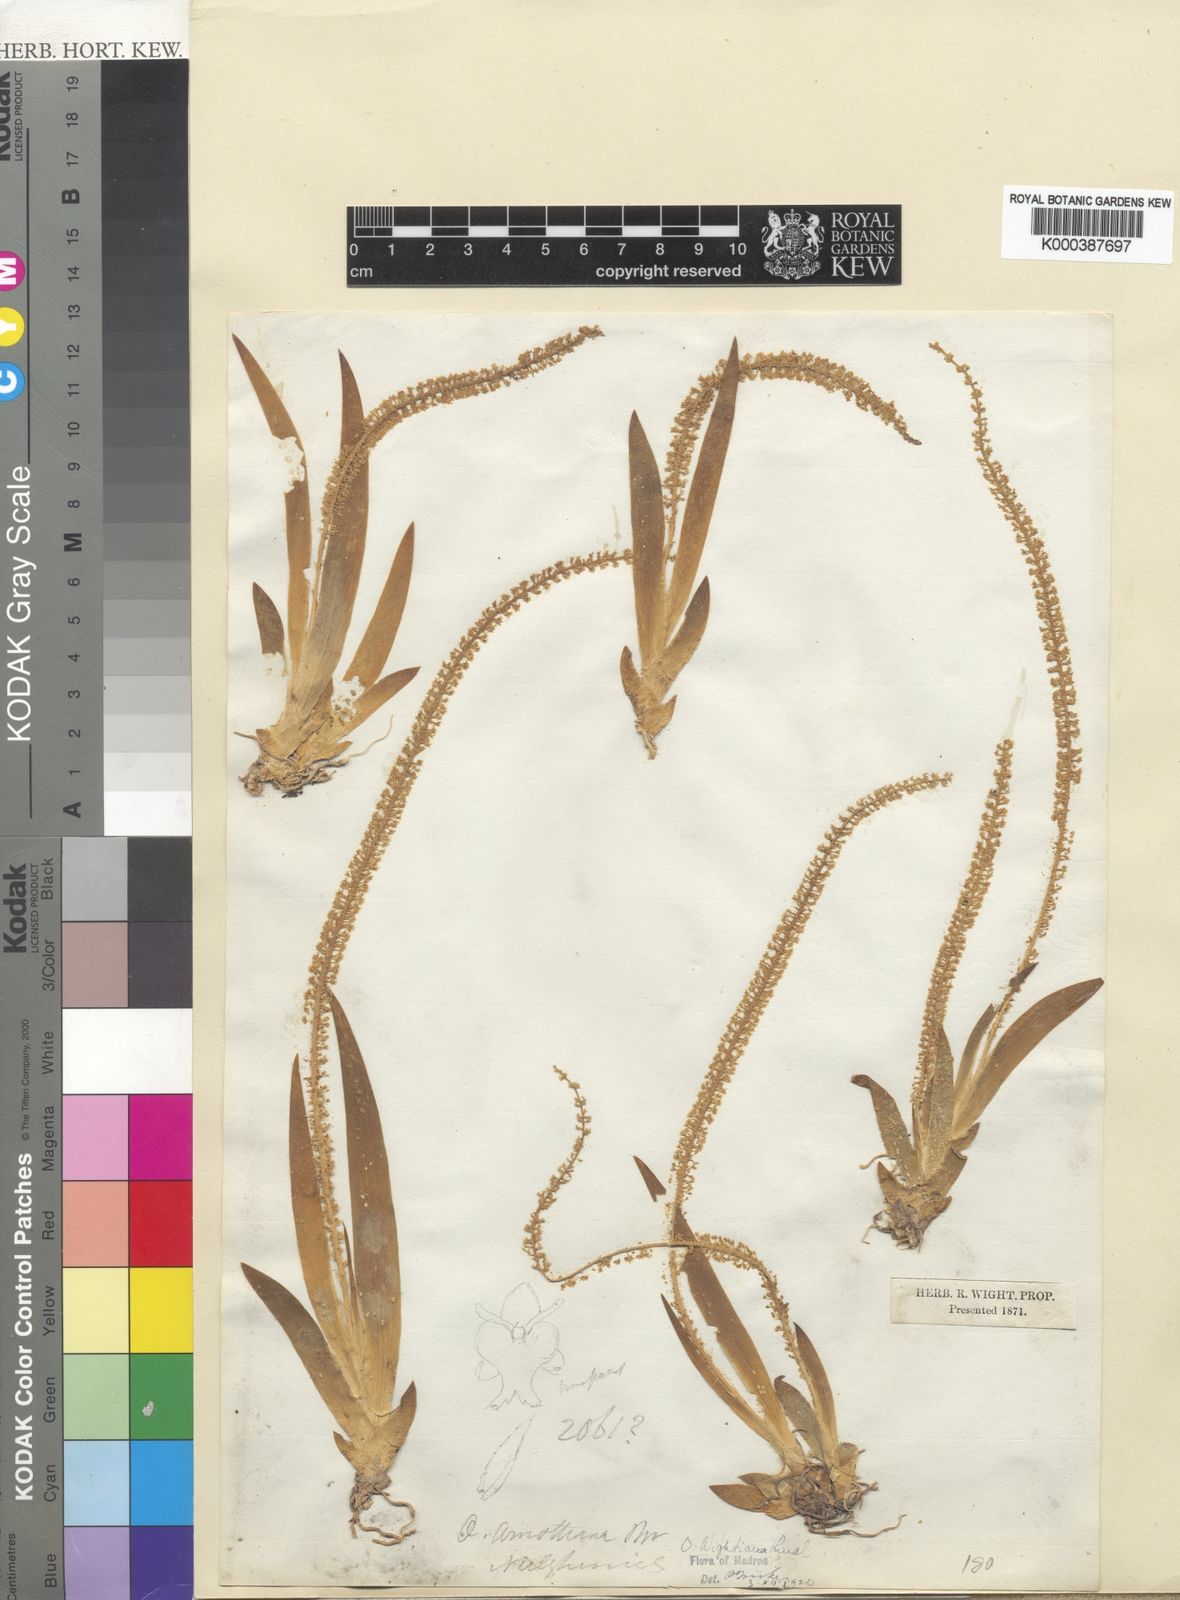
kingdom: Plantae
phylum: Tracheophyta
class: Liliopsida
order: Asparagales
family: Orchidaceae
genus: Oberonia
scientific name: Oberonia orbicularis
